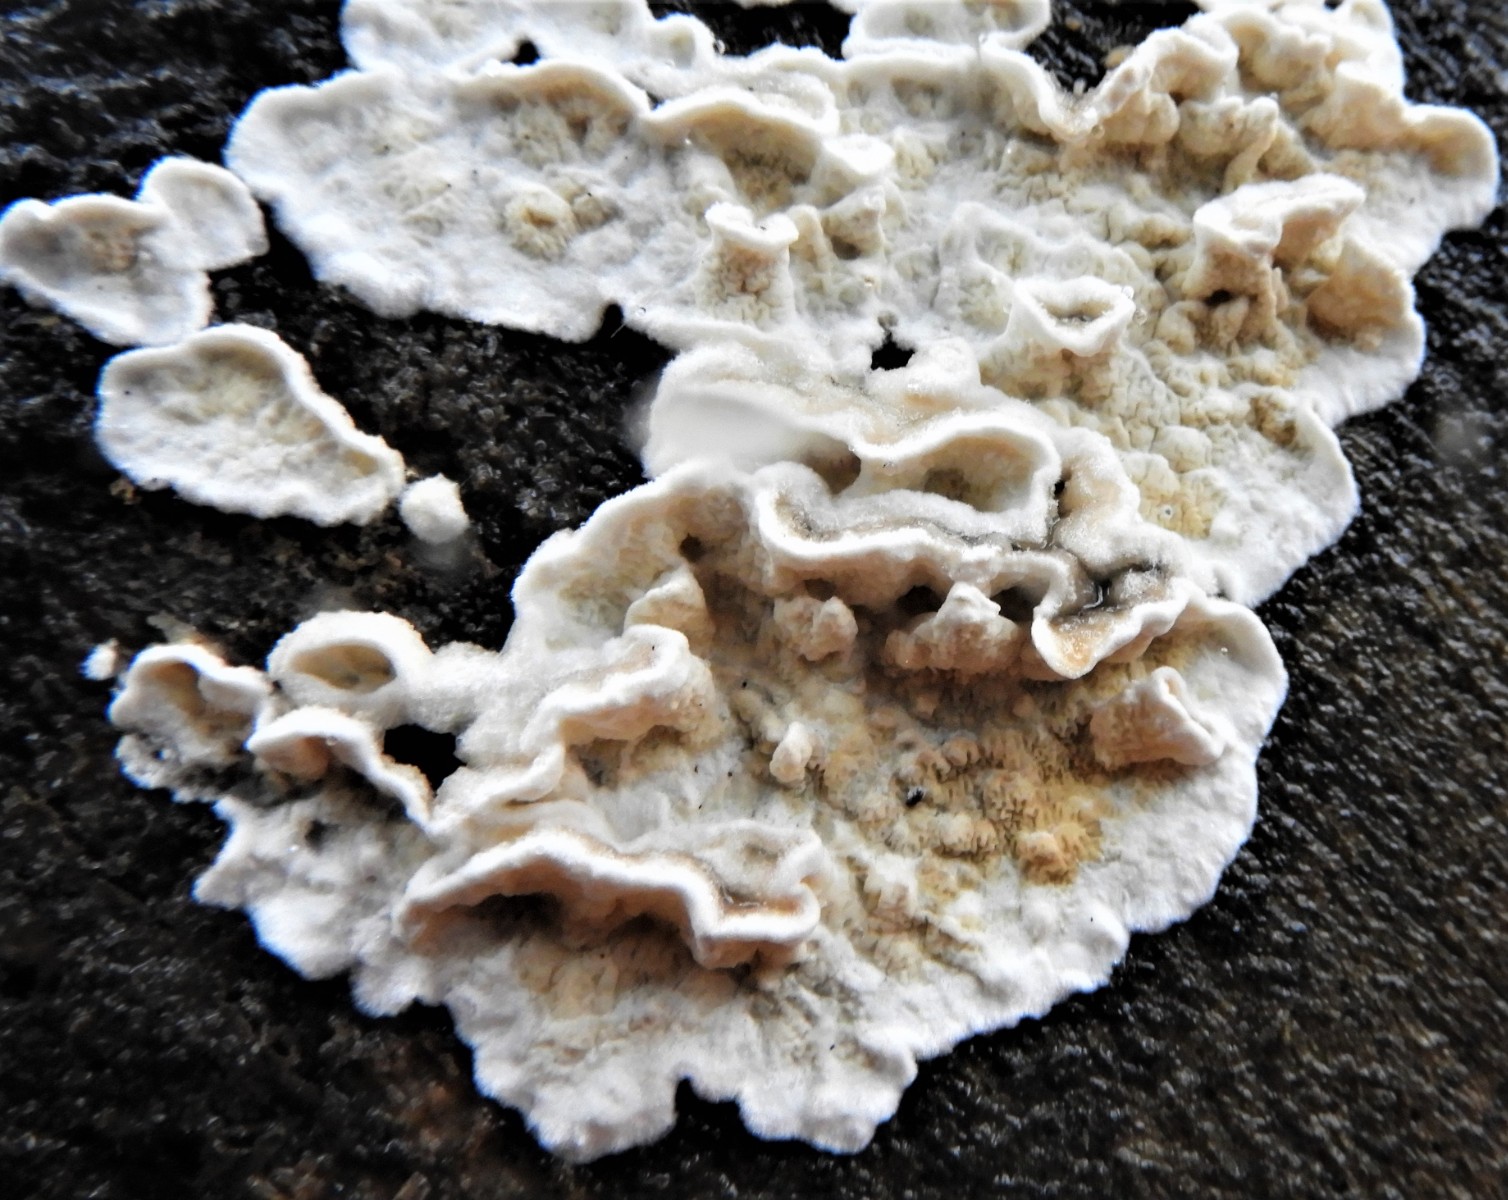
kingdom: Fungi
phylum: Basidiomycota
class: Agaricomycetes
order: Polyporales
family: Irpicaceae
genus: Byssomerulius
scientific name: Byssomerulius corium
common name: læder-åresvamp
